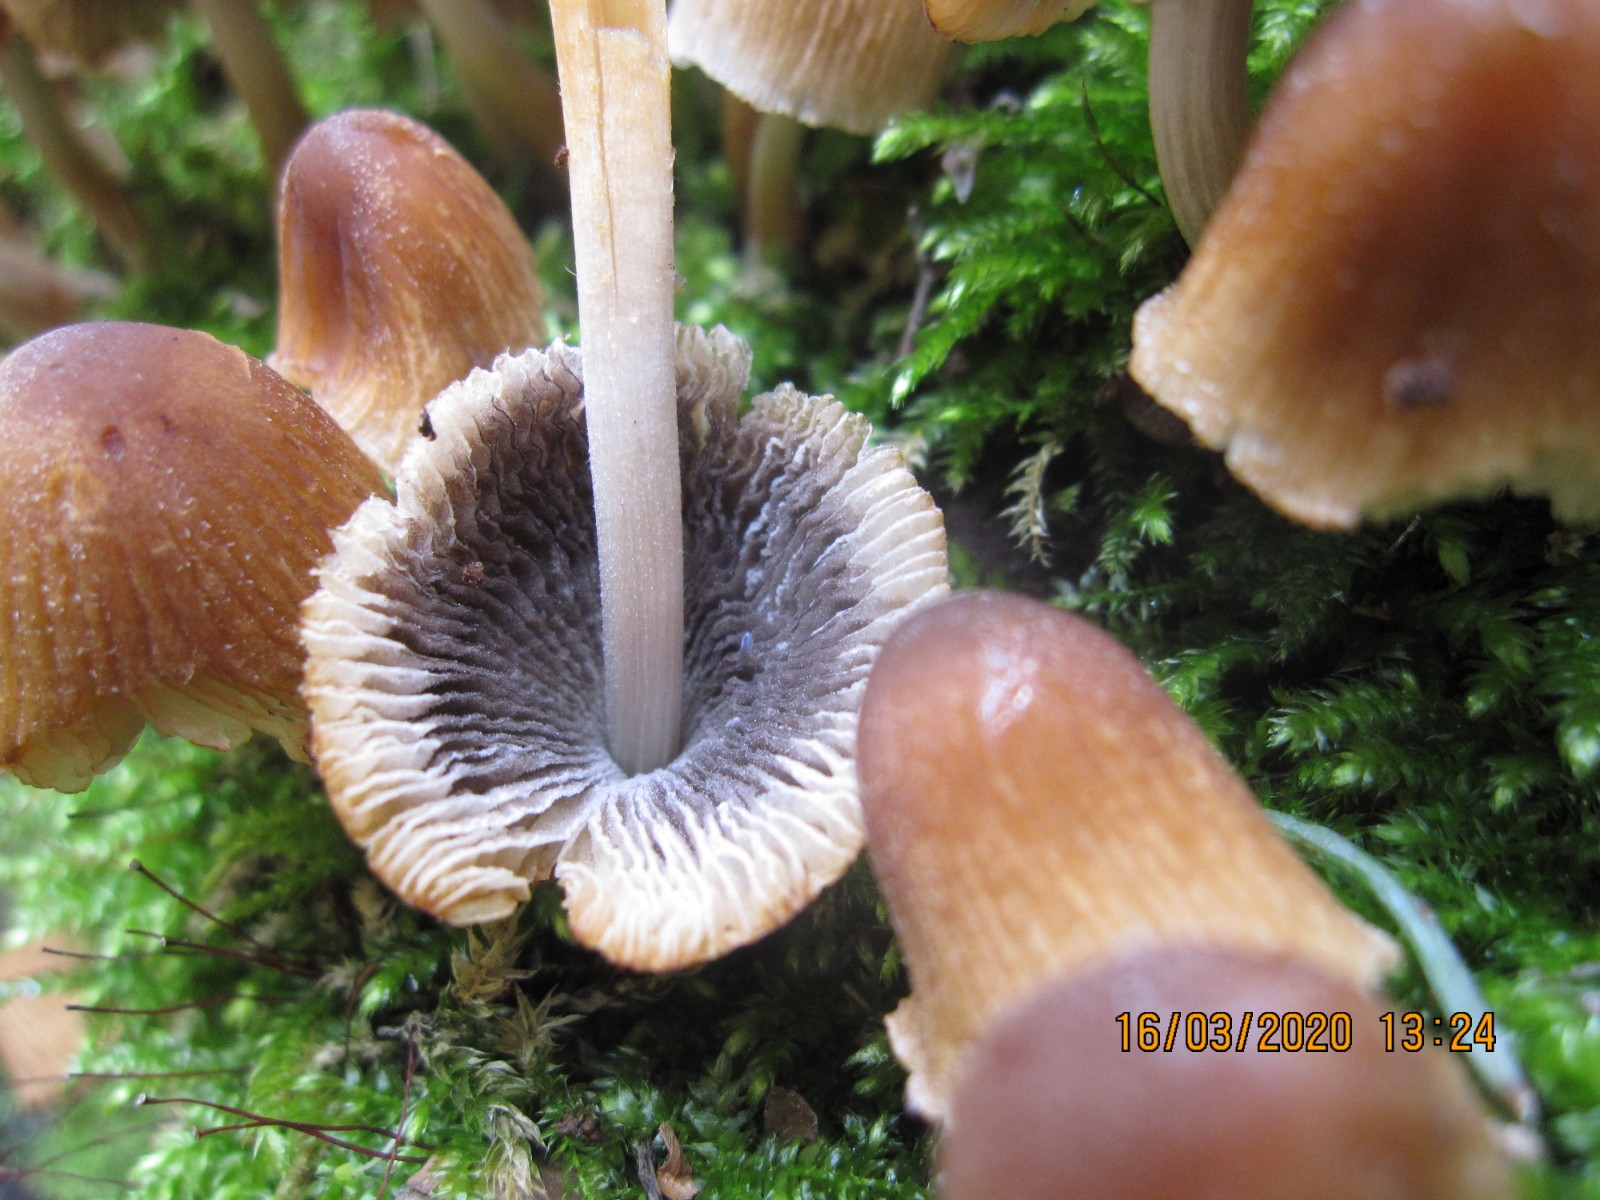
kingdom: Fungi
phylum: Basidiomycota
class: Agaricomycetes
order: Agaricales
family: Psathyrellaceae
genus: Coprinellus
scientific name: Coprinellus micaceus
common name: glimmer-blækhat
